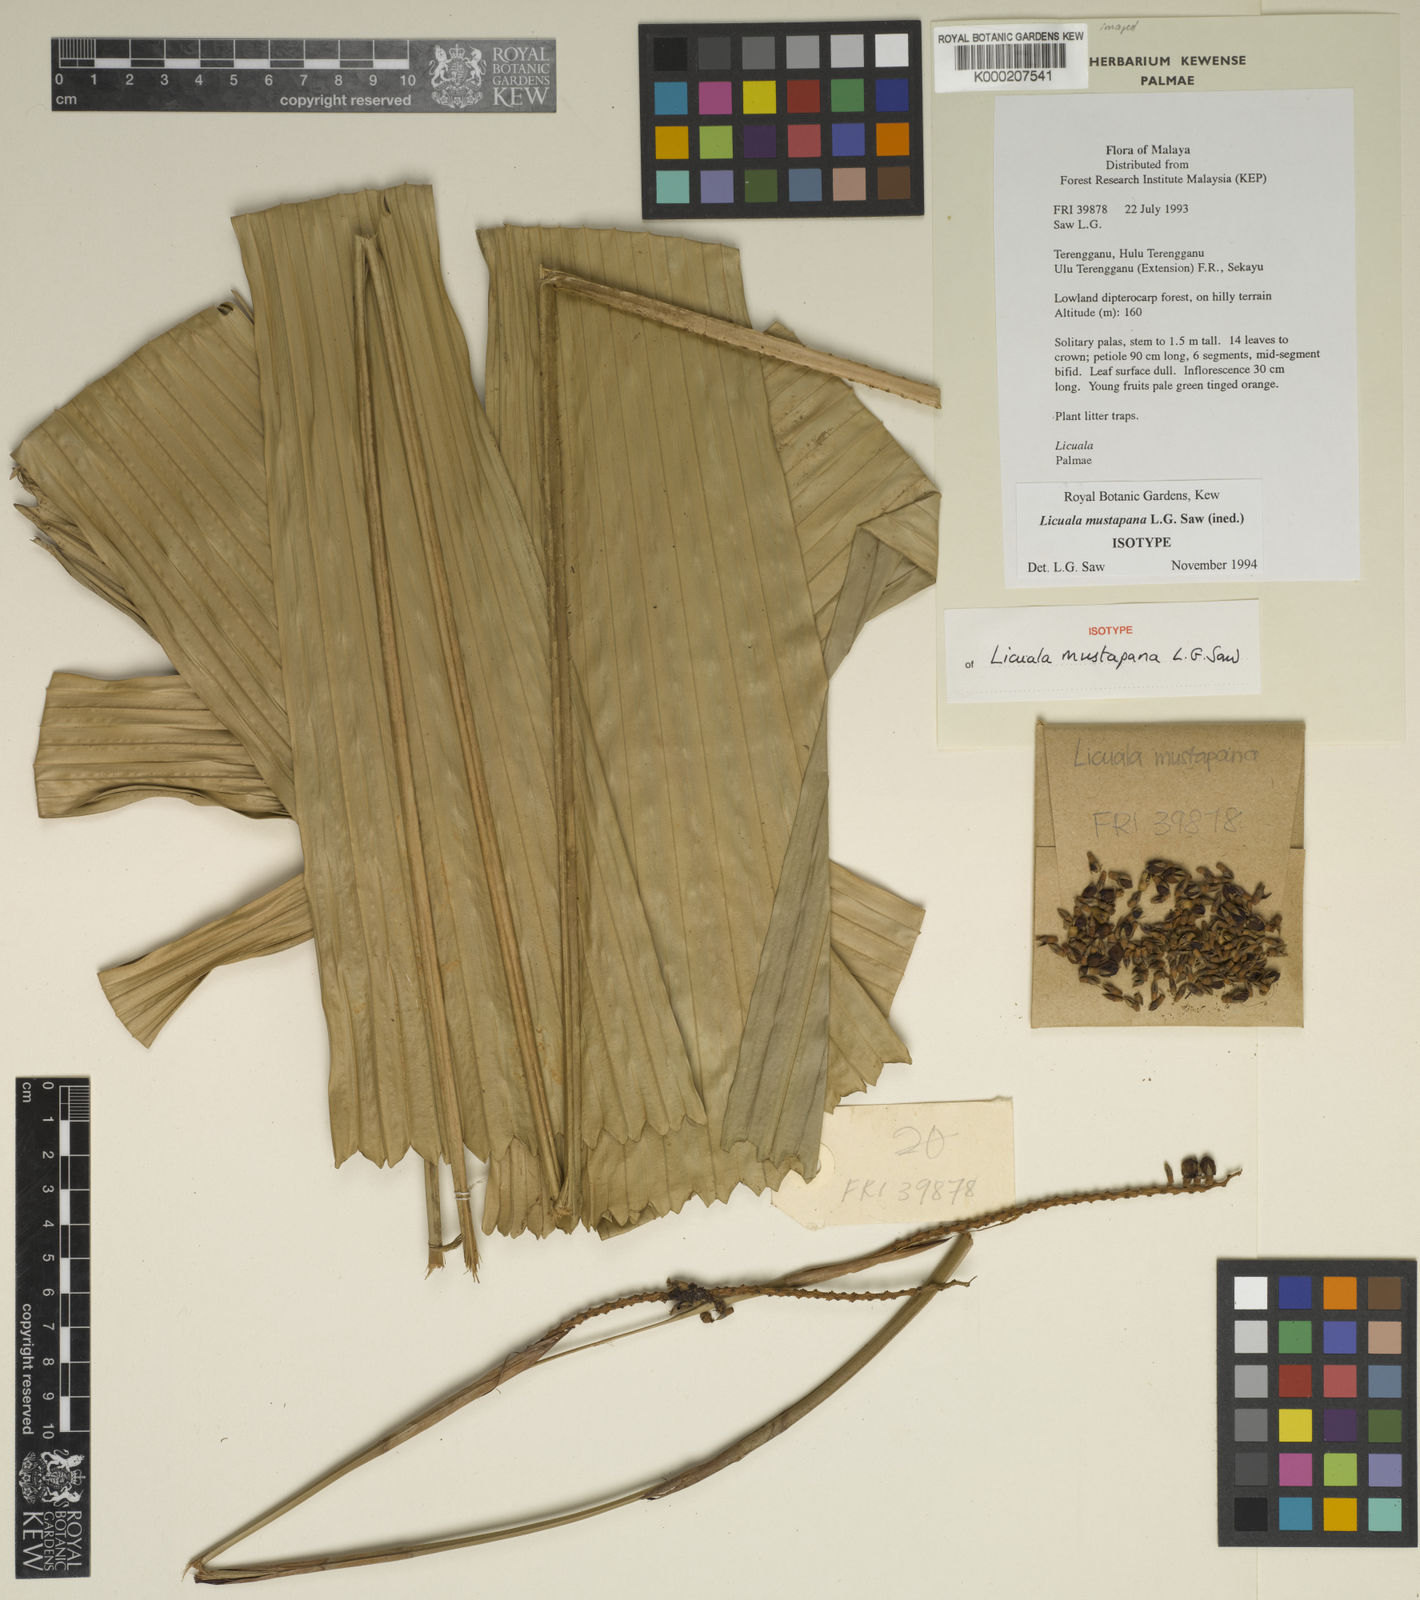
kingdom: Plantae
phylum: Tracheophyta
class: Liliopsida
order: Arecales
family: Arecaceae
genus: Licuala
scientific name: Licuala mustapana
